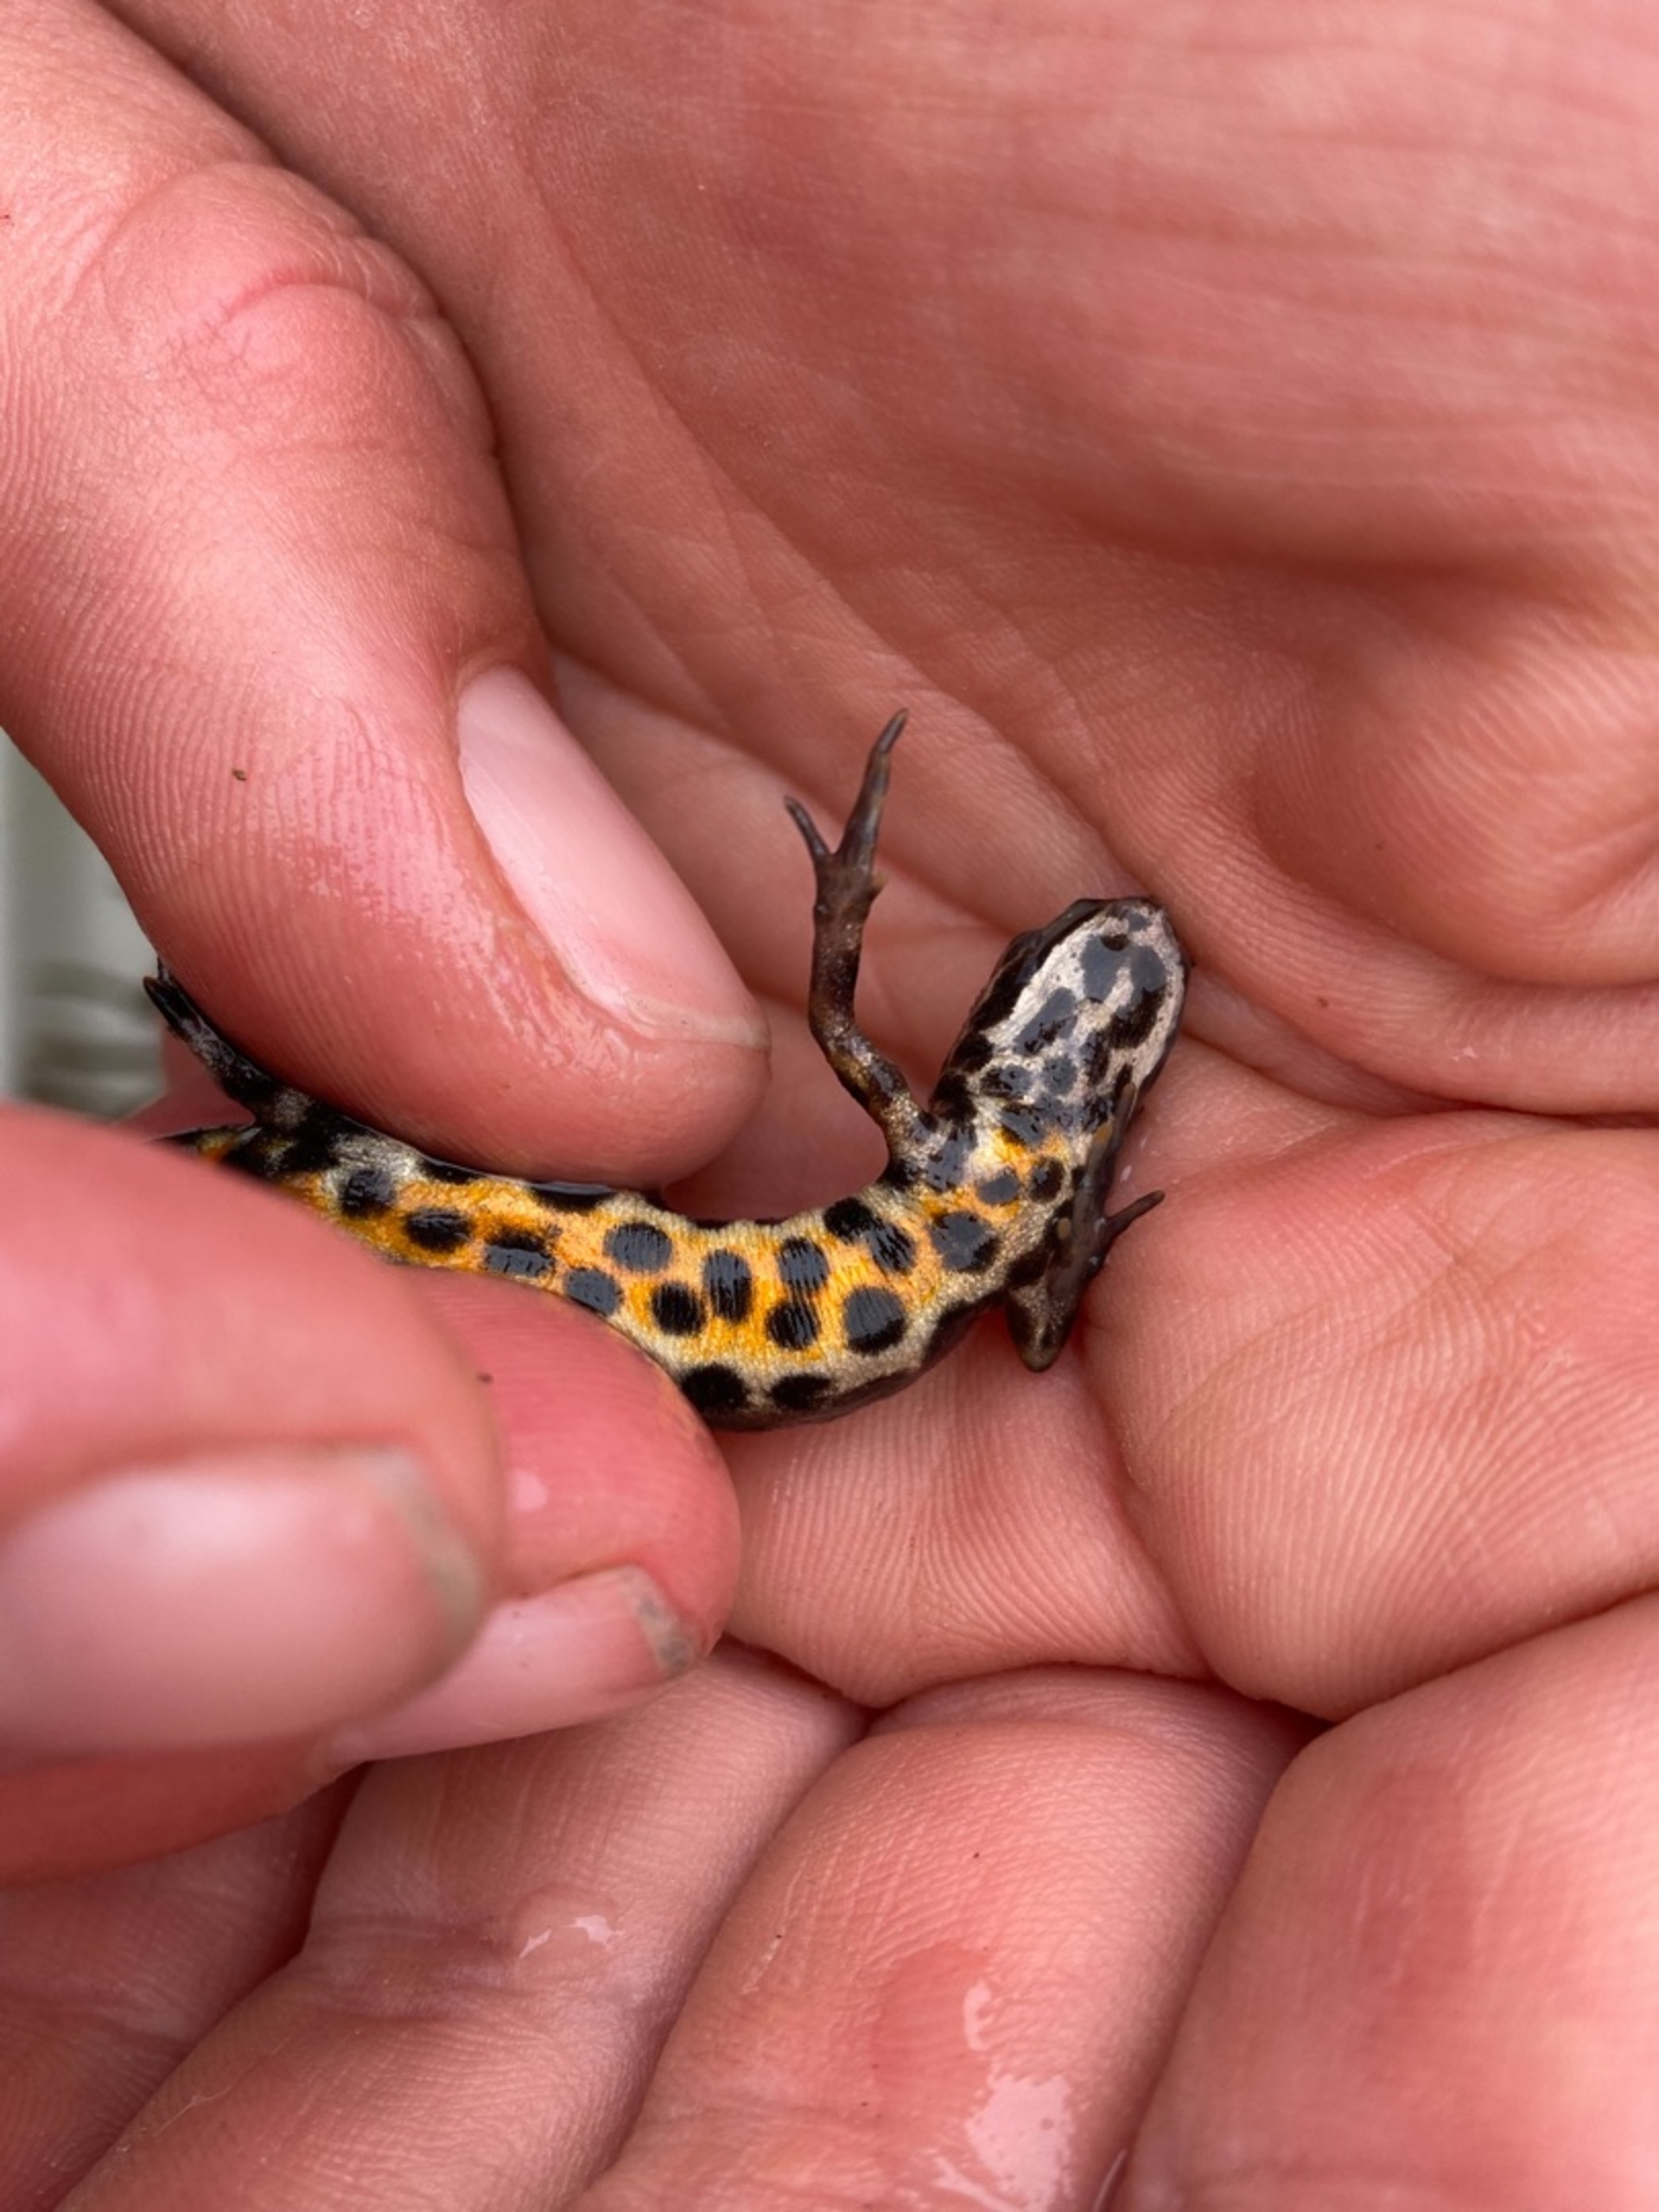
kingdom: Animalia
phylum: Chordata
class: Amphibia
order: Caudata
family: Salamandridae
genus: Lissotriton
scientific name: Lissotriton vulgaris
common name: Lille vandsalamander
